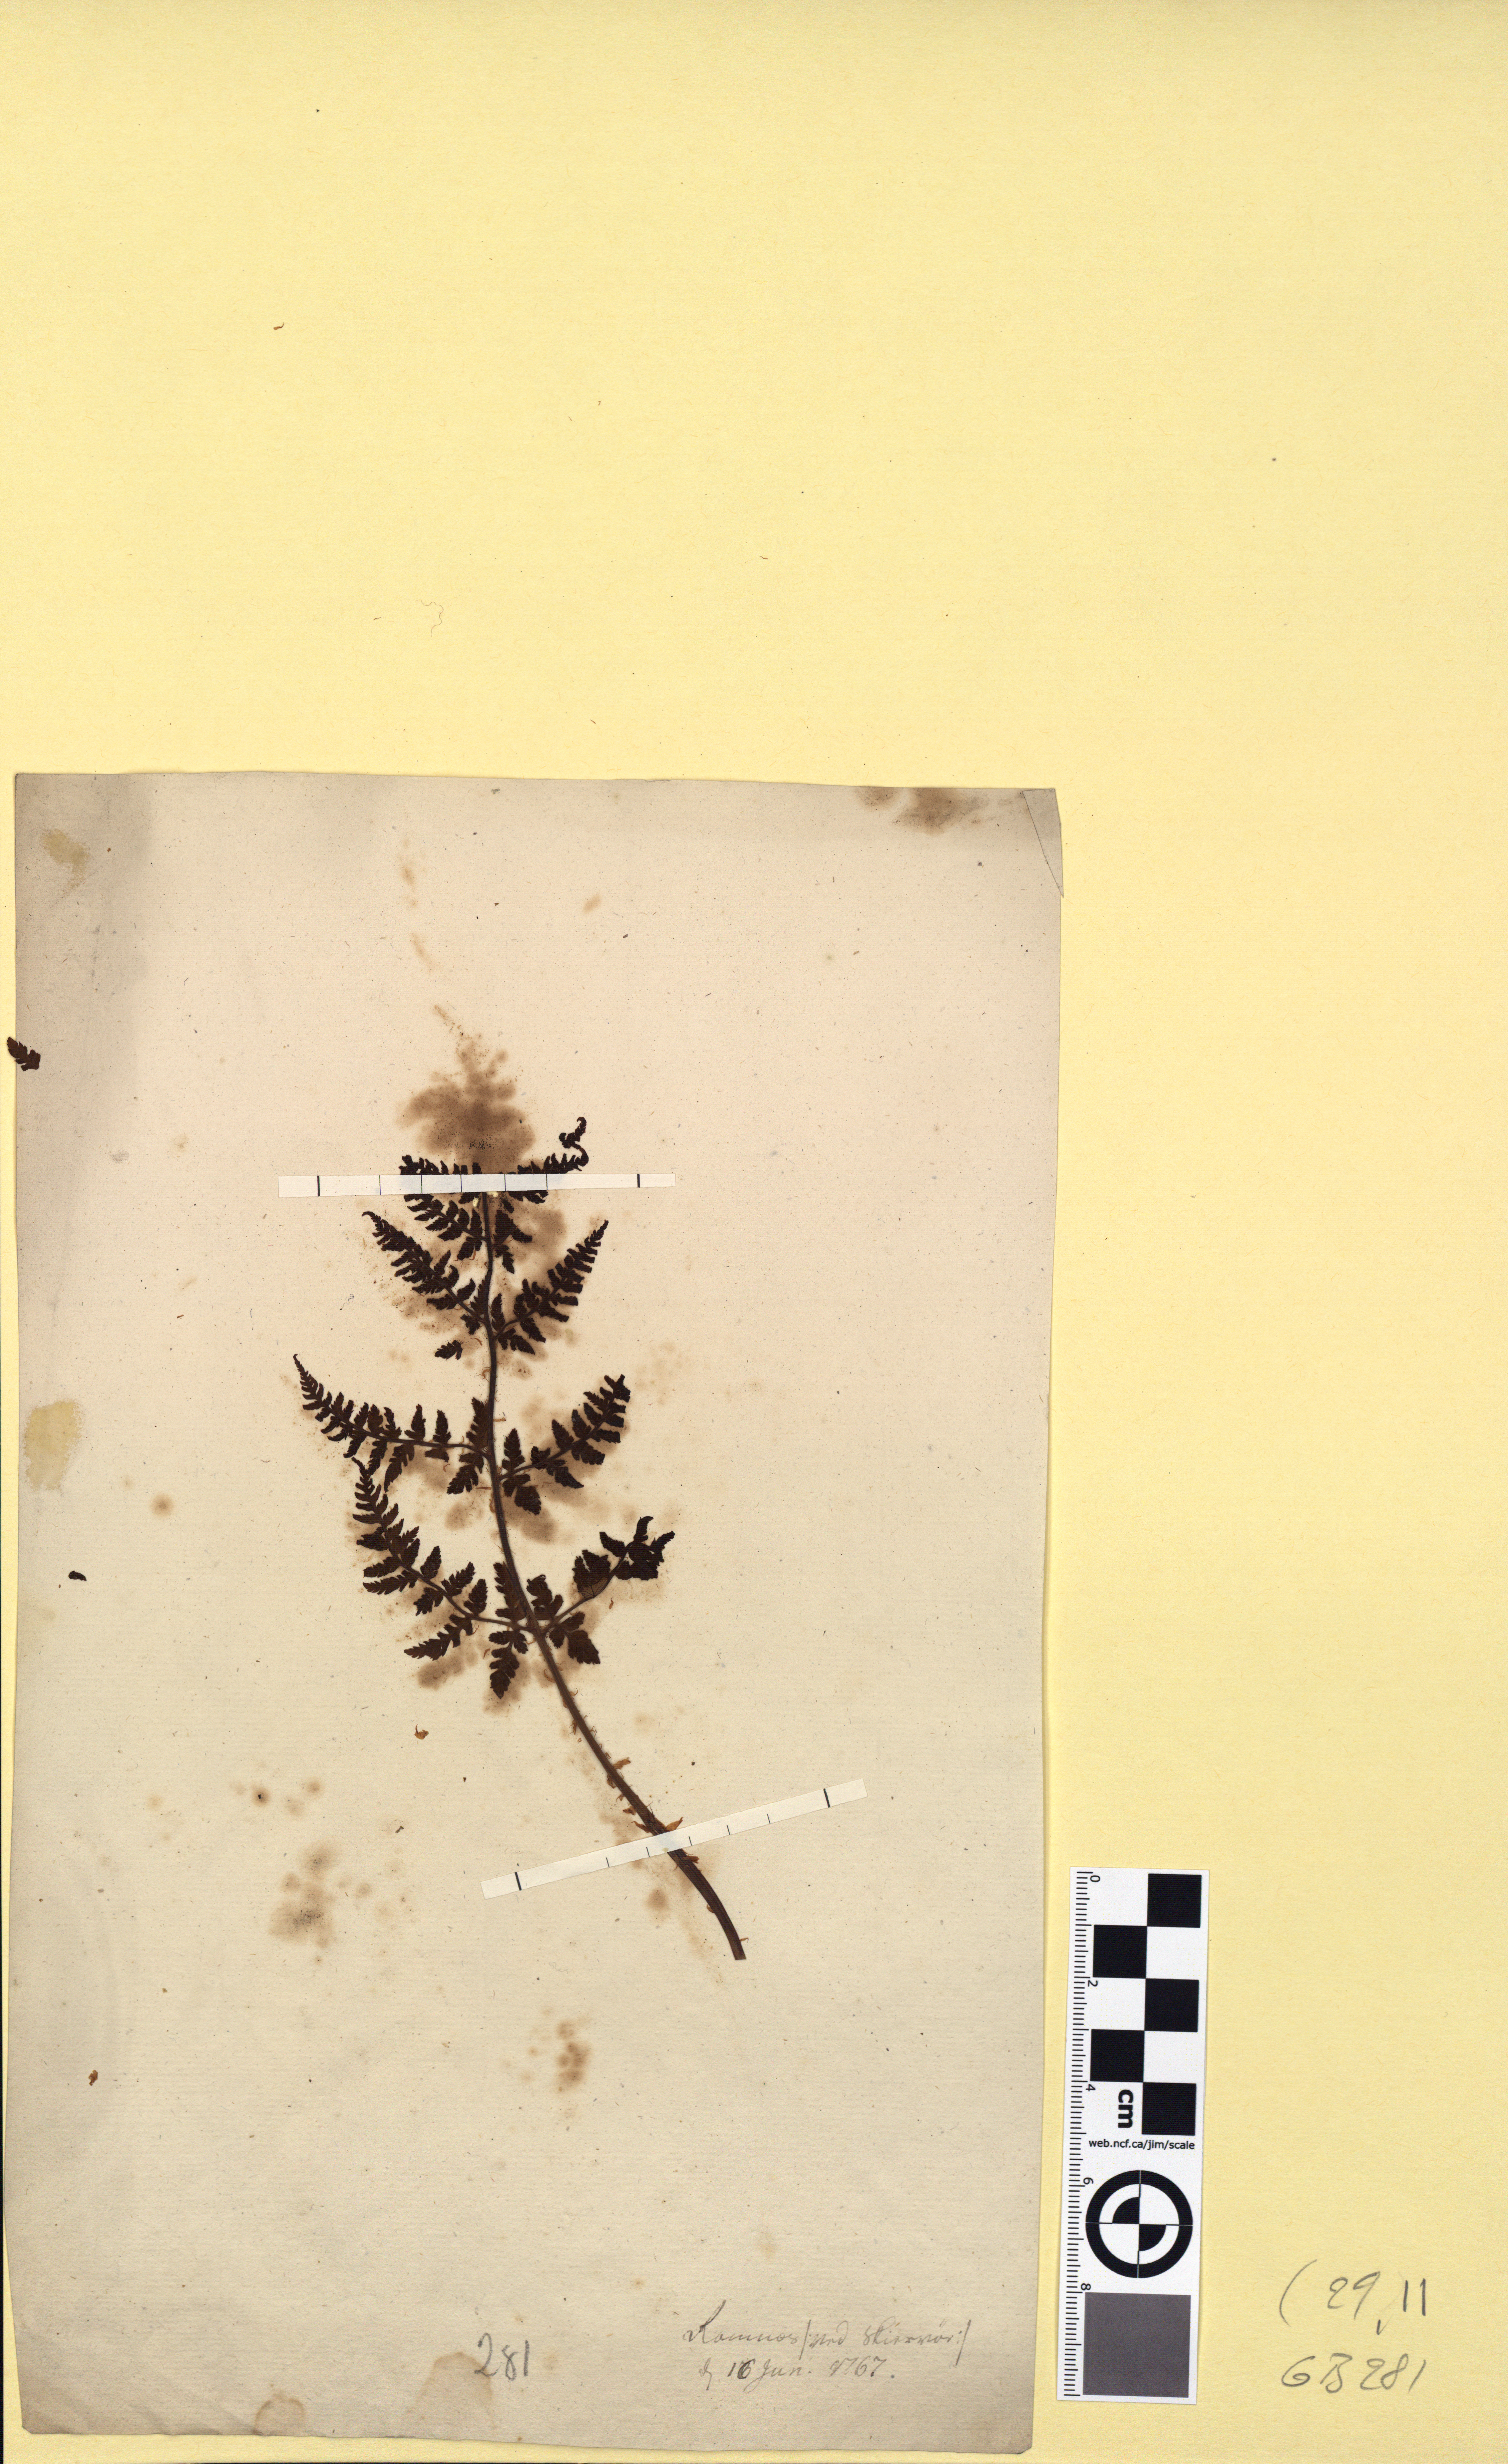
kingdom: Plantae
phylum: Tracheophyta
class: Polypodiopsida
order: Polypodiales
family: Dryopteridaceae
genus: Dryopteris
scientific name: Dryopteris expansa
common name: Northern buckler fern
